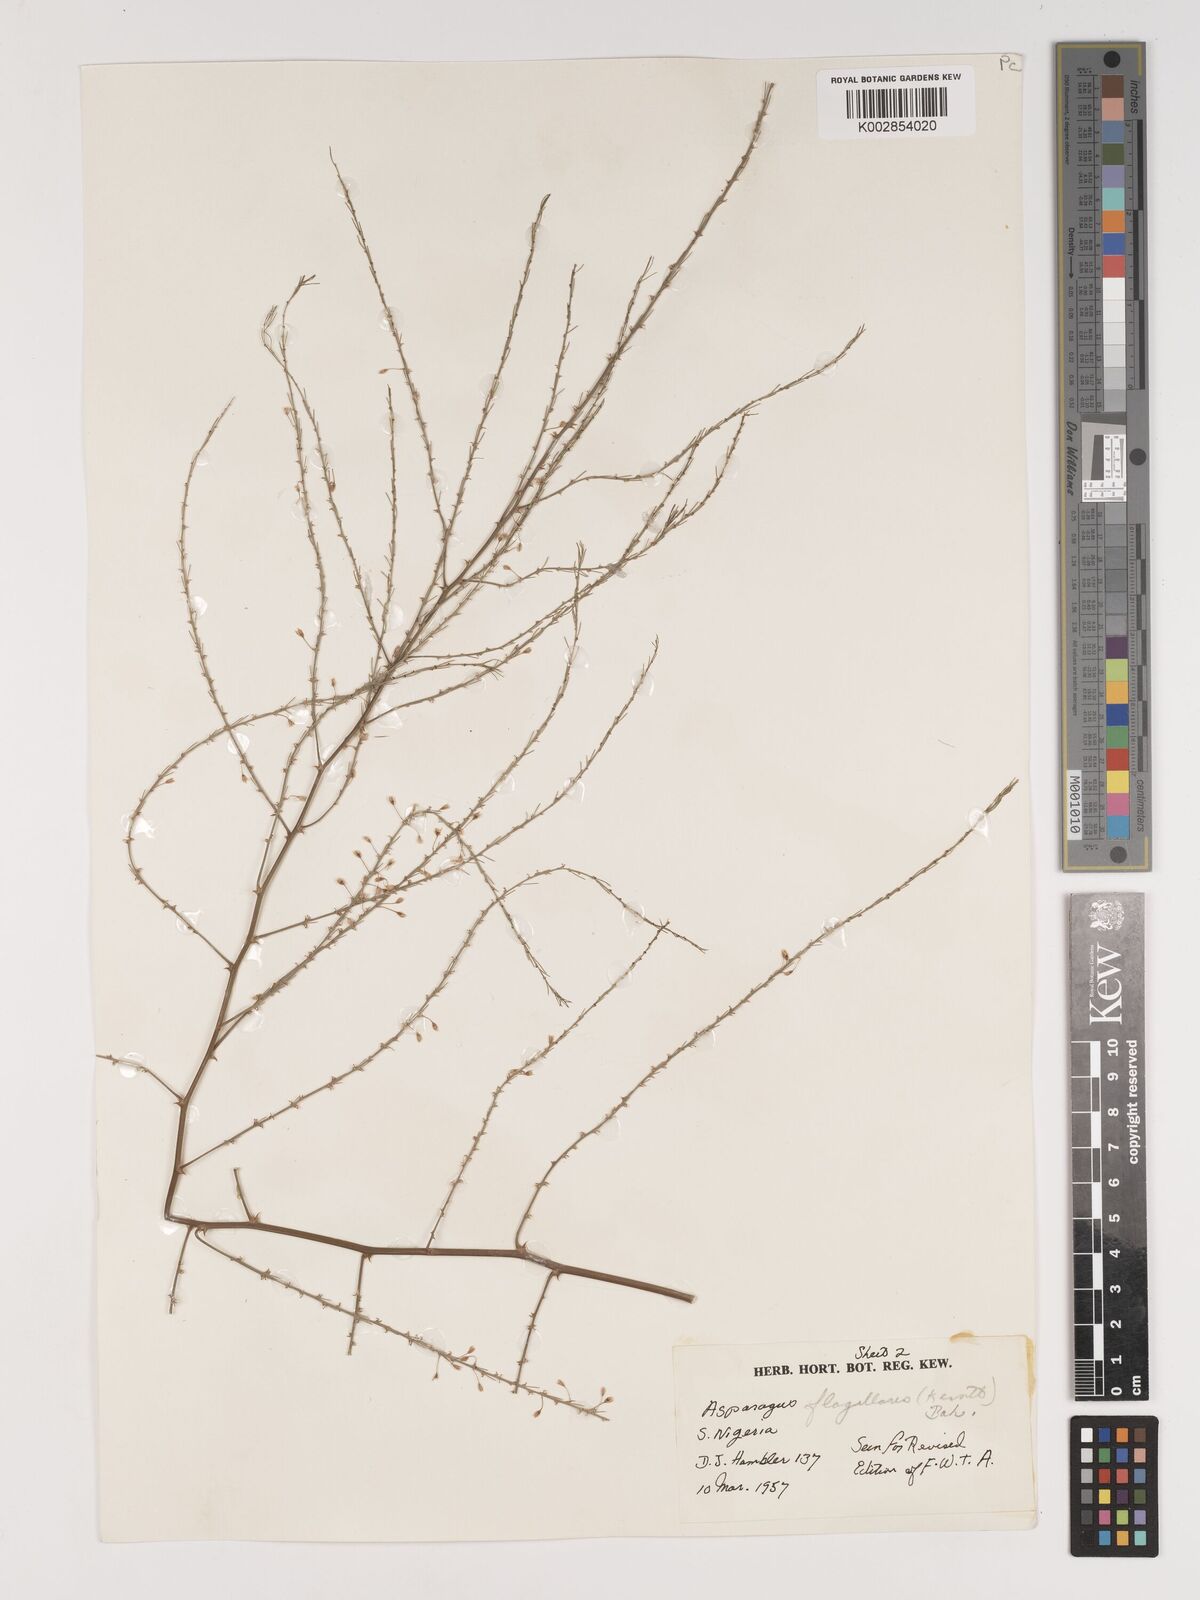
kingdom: Plantae
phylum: Tracheophyta
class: Liliopsida
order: Asparagales
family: Asparagaceae
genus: Asparagus
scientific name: Asparagus flagellaris
